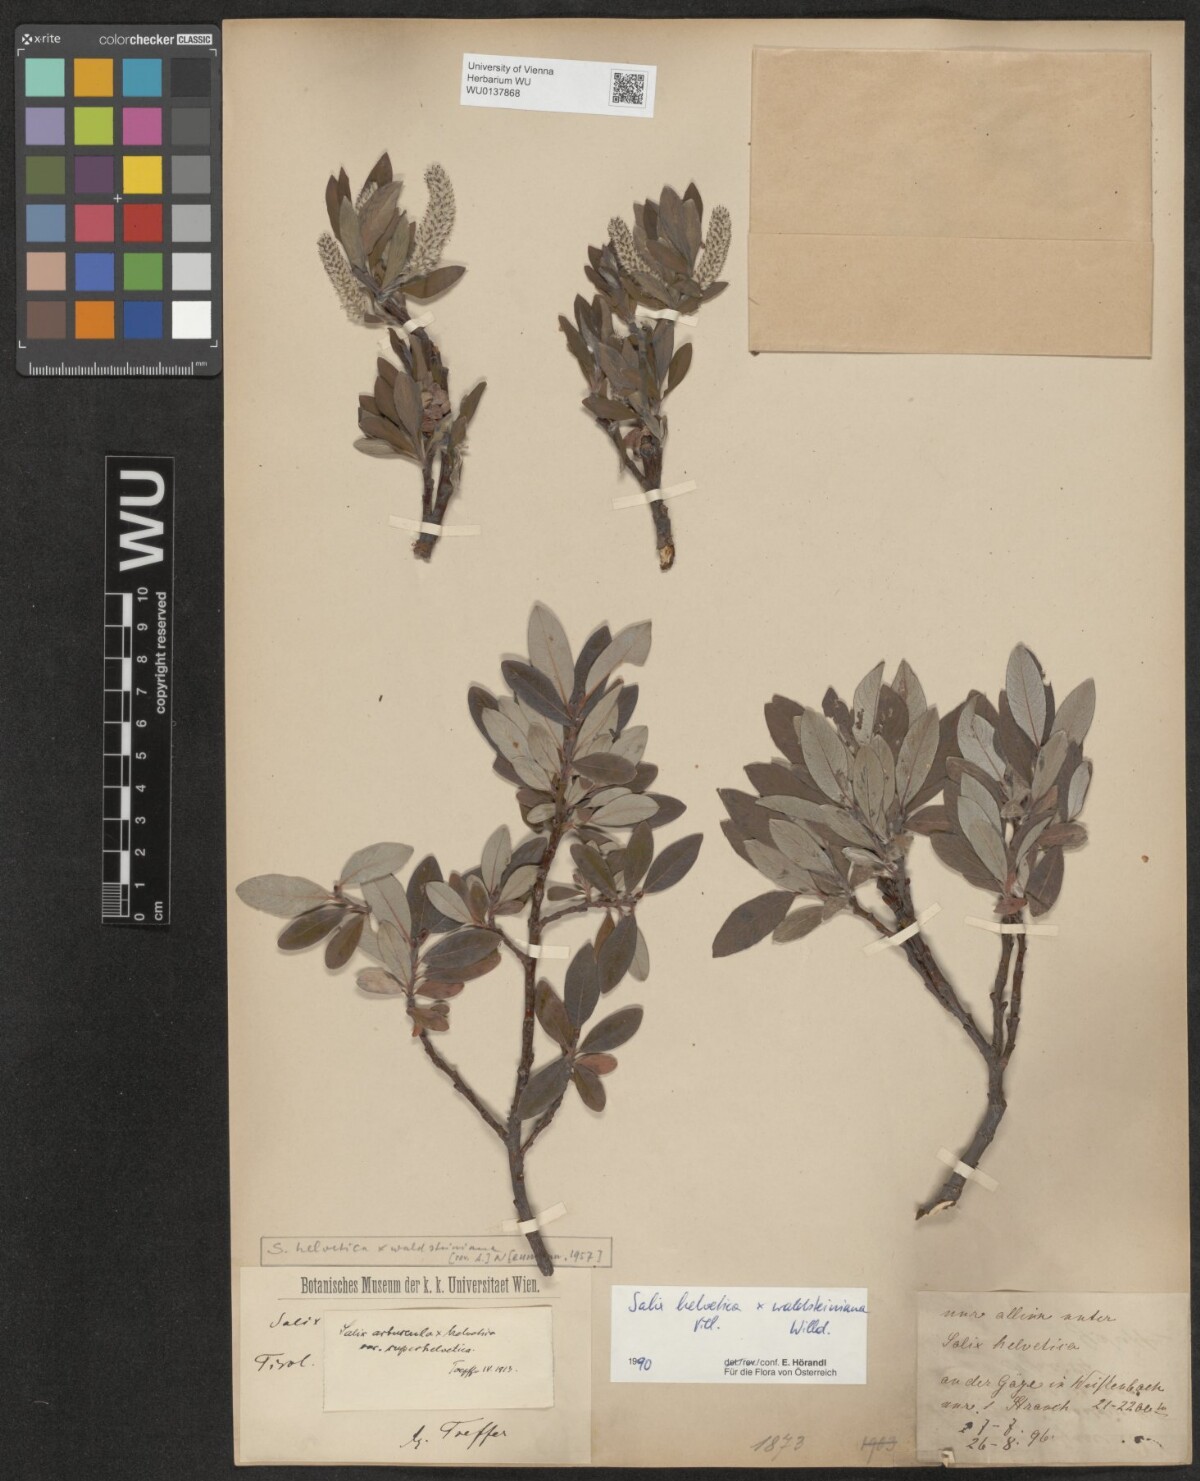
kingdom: Plantae
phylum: Tracheophyta
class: Magnoliopsida
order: Malpighiales
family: Salicaceae
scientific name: Salicaceae
